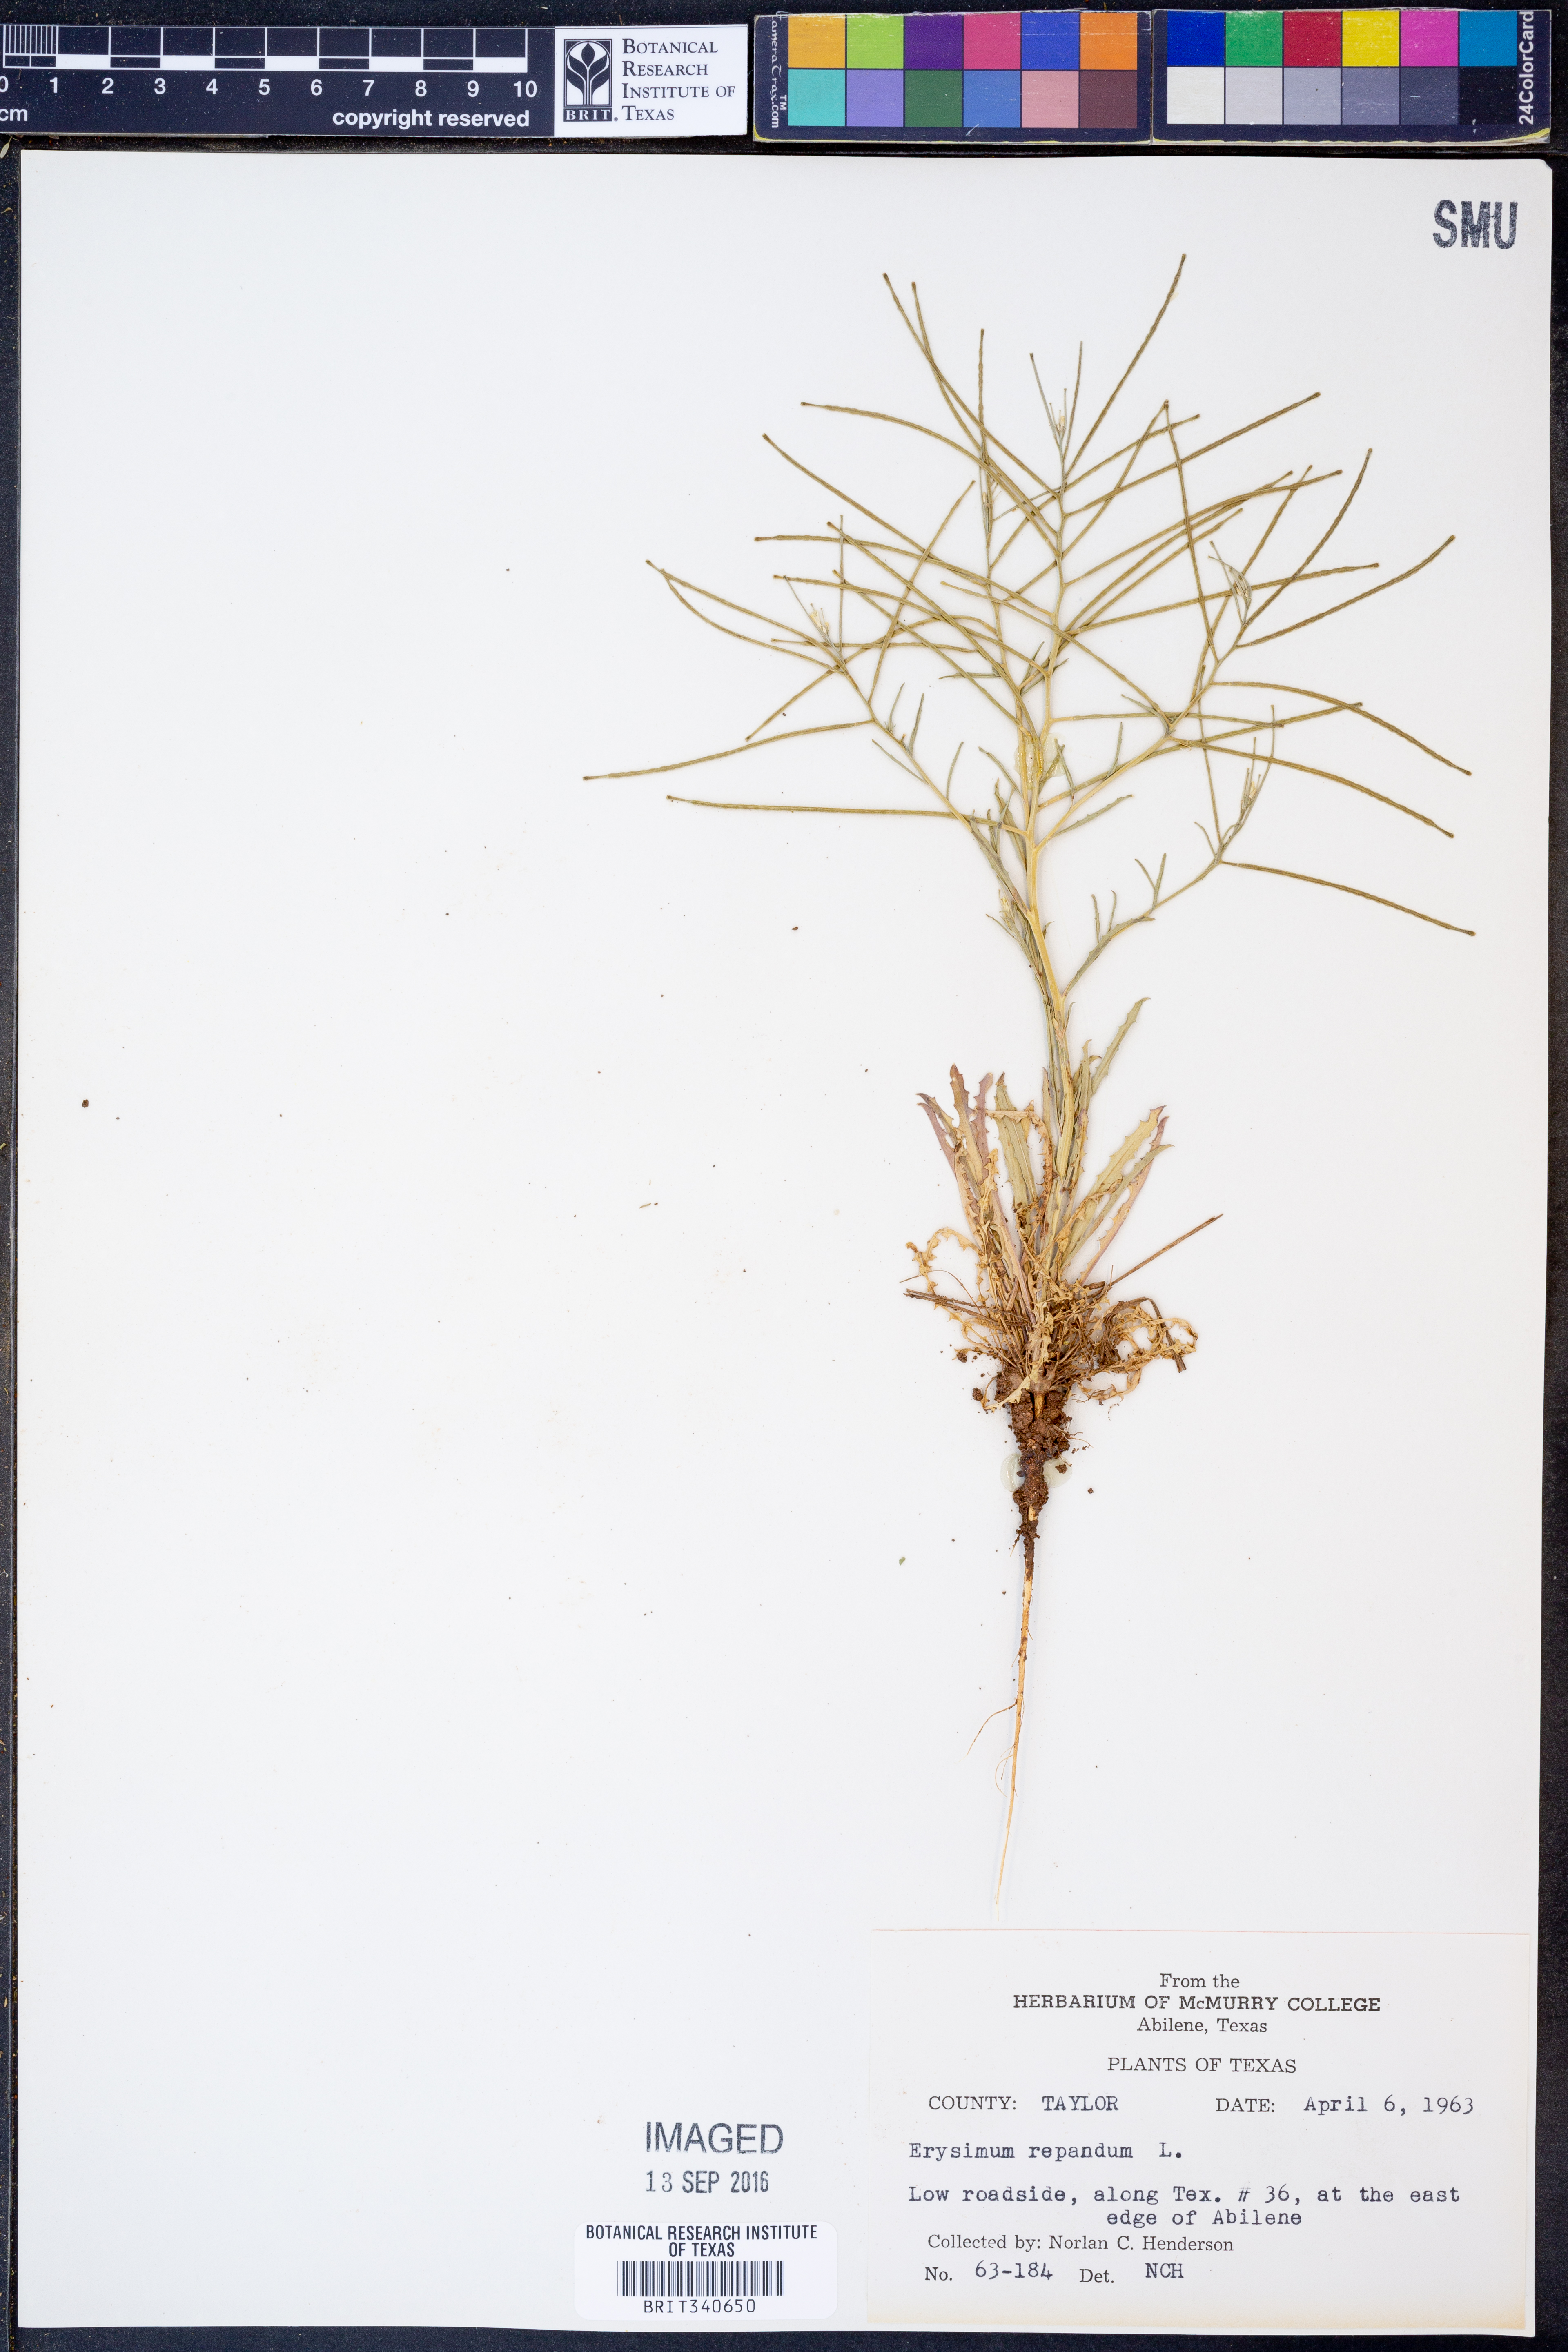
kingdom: Plantae
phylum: Tracheophyta
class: Magnoliopsida
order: Brassicales
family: Brassicaceae
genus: Erysimum
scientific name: Erysimum repandum
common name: Spreading wallflower
